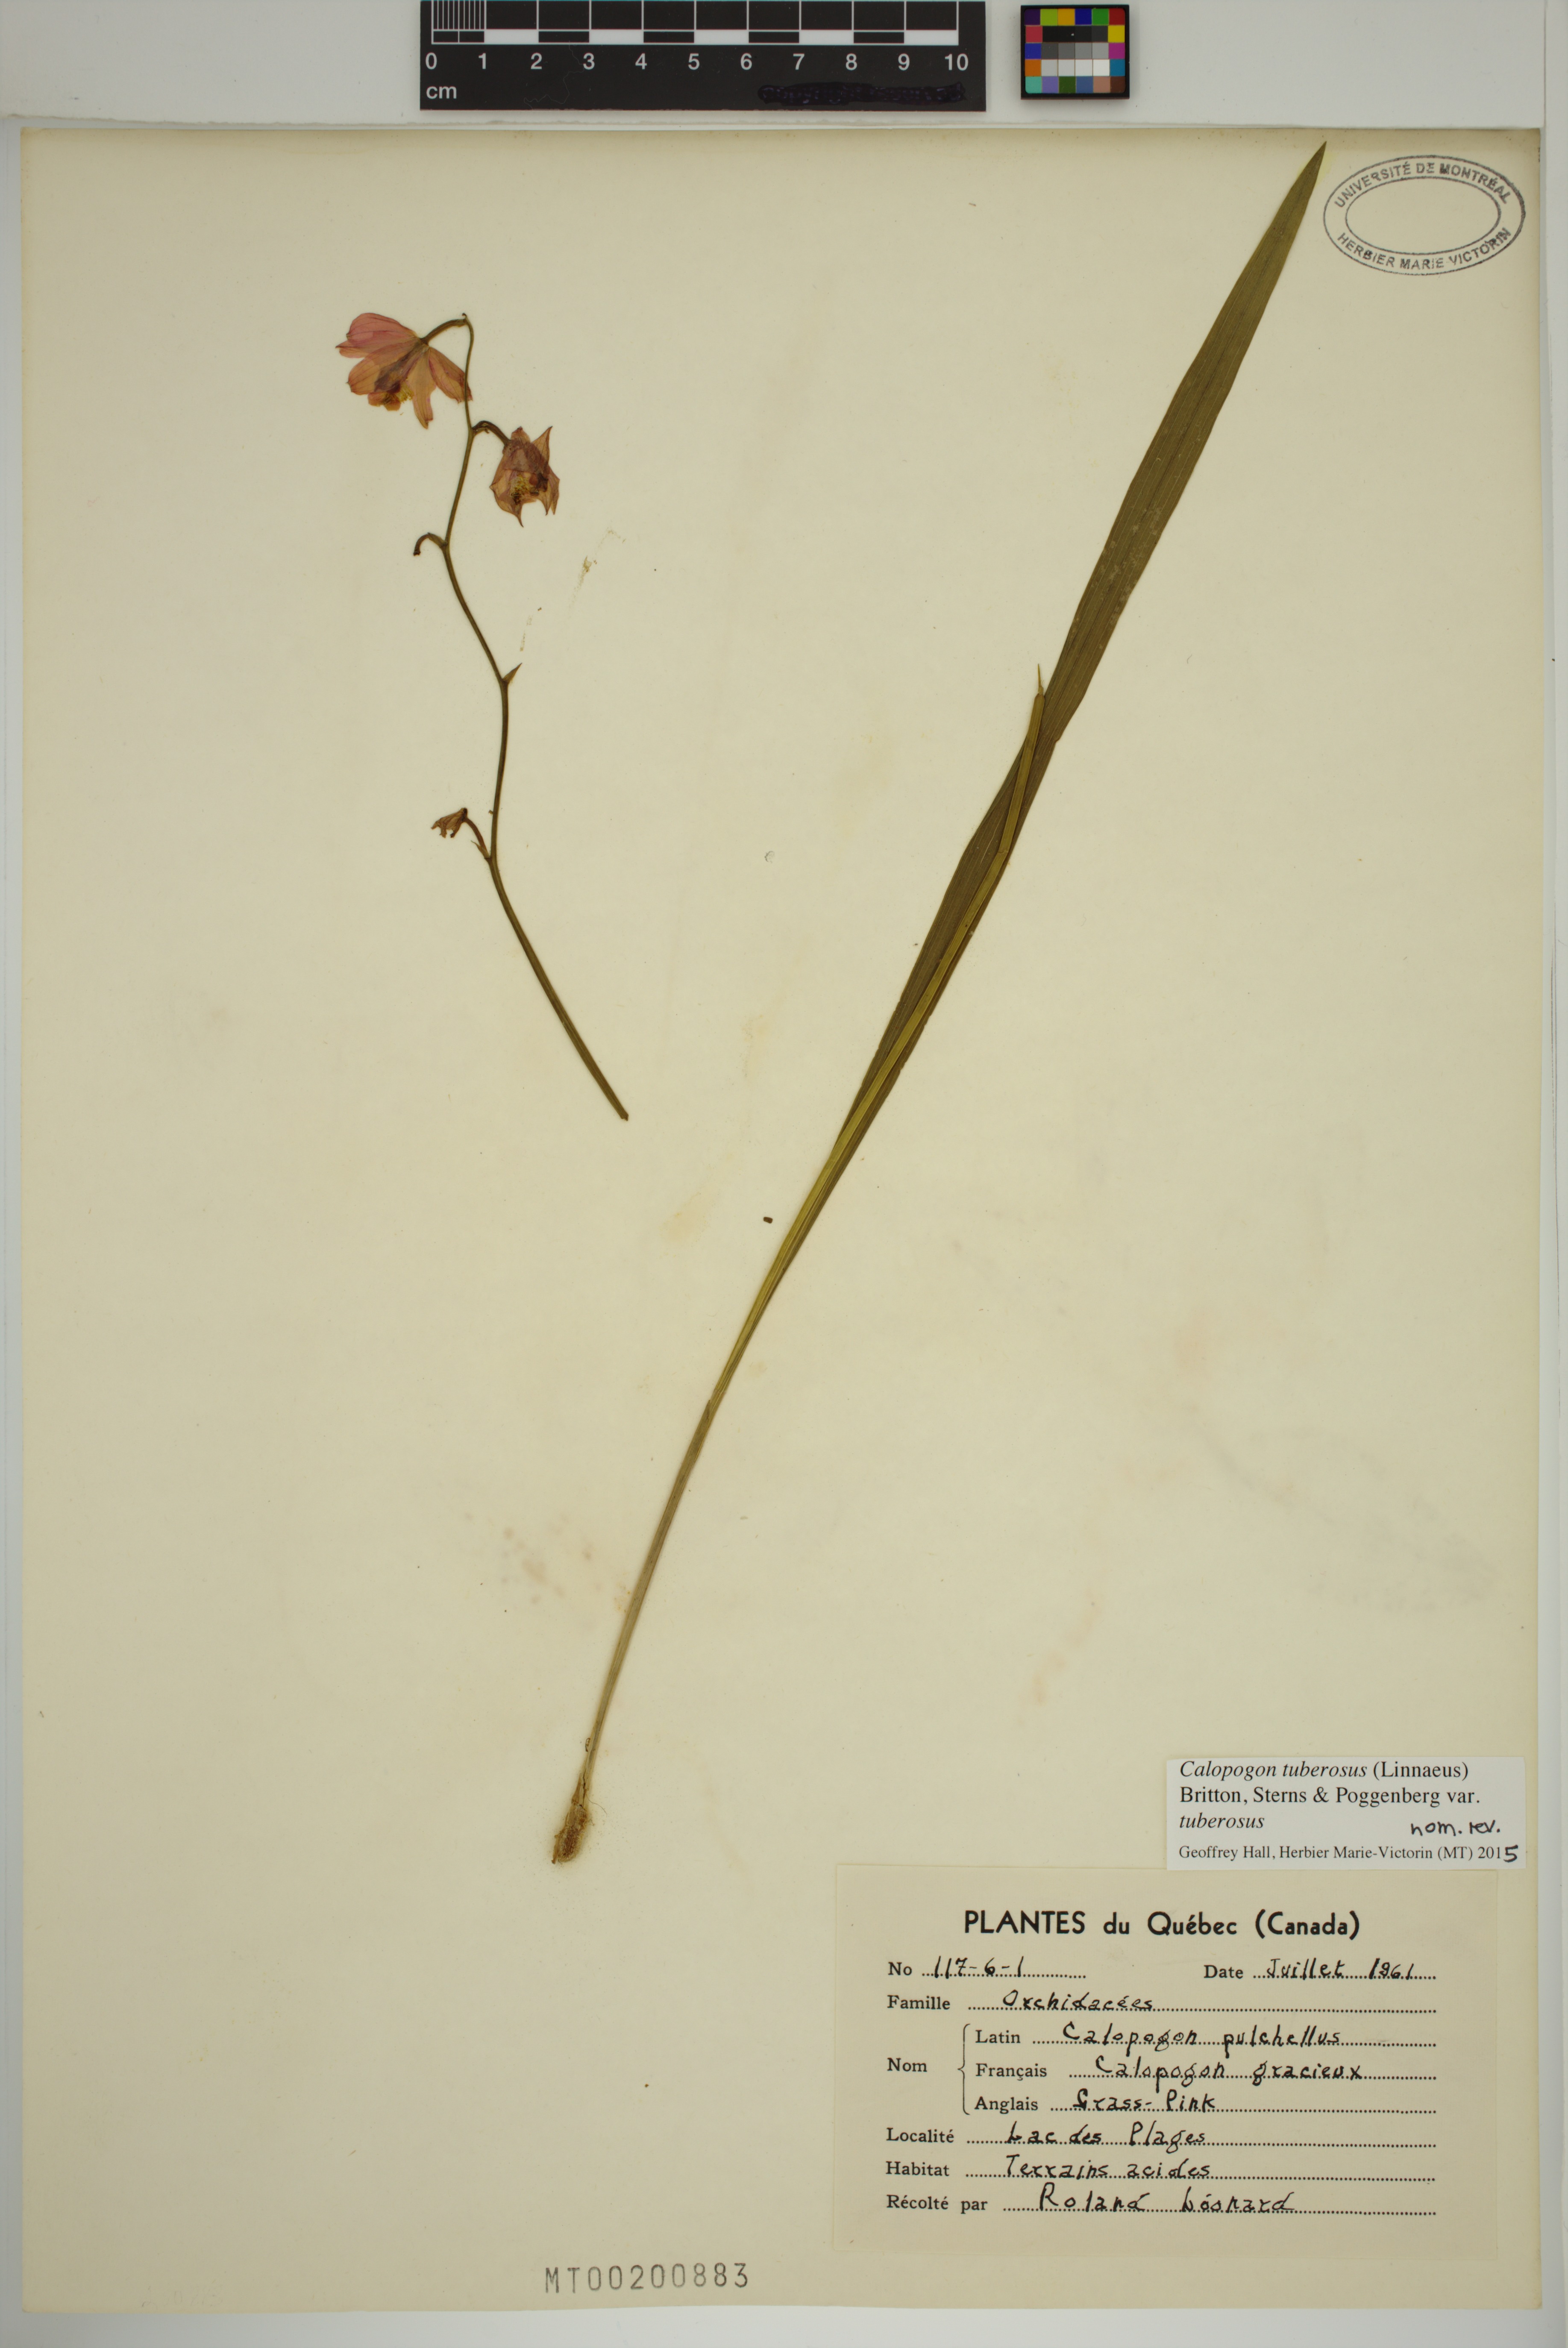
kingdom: Plantae
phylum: Tracheophyta
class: Liliopsida
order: Asparagales
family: Orchidaceae
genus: Calopogon
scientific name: Calopogon tuberosus
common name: Grass-pink
